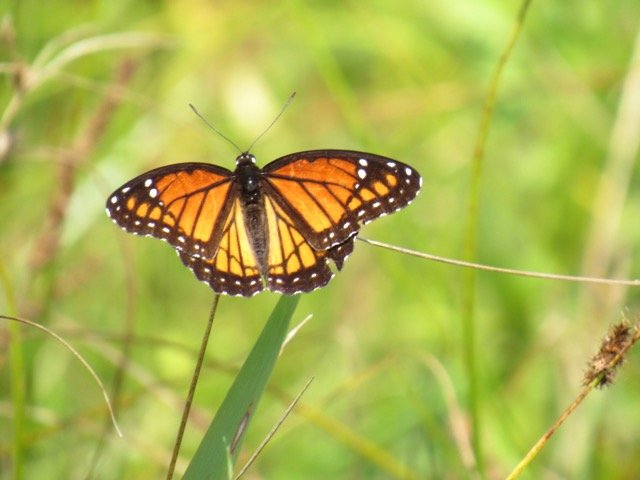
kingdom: Animalia
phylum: Arthropoda
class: Insecta
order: Lepidoptera
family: Nymphalidae
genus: Limenitis
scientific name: Limenitis archippus
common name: Viceroy
